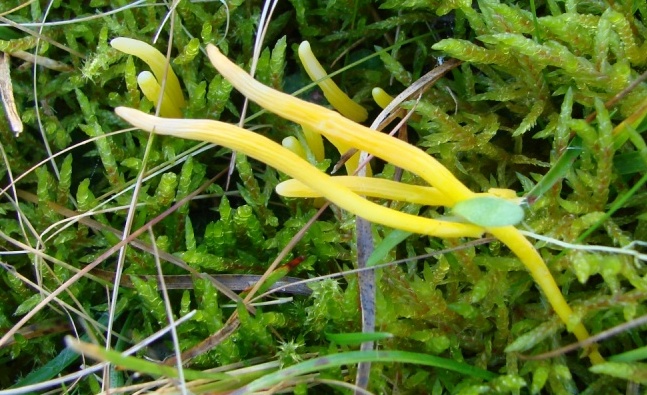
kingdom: Fungi
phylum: Basidiomycota
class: Agaricomycetes
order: Agaricales
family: Clavariaceae
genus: Clavulinopsis
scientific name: Clavulinopsis helvola
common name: orangegul køllesvamp
